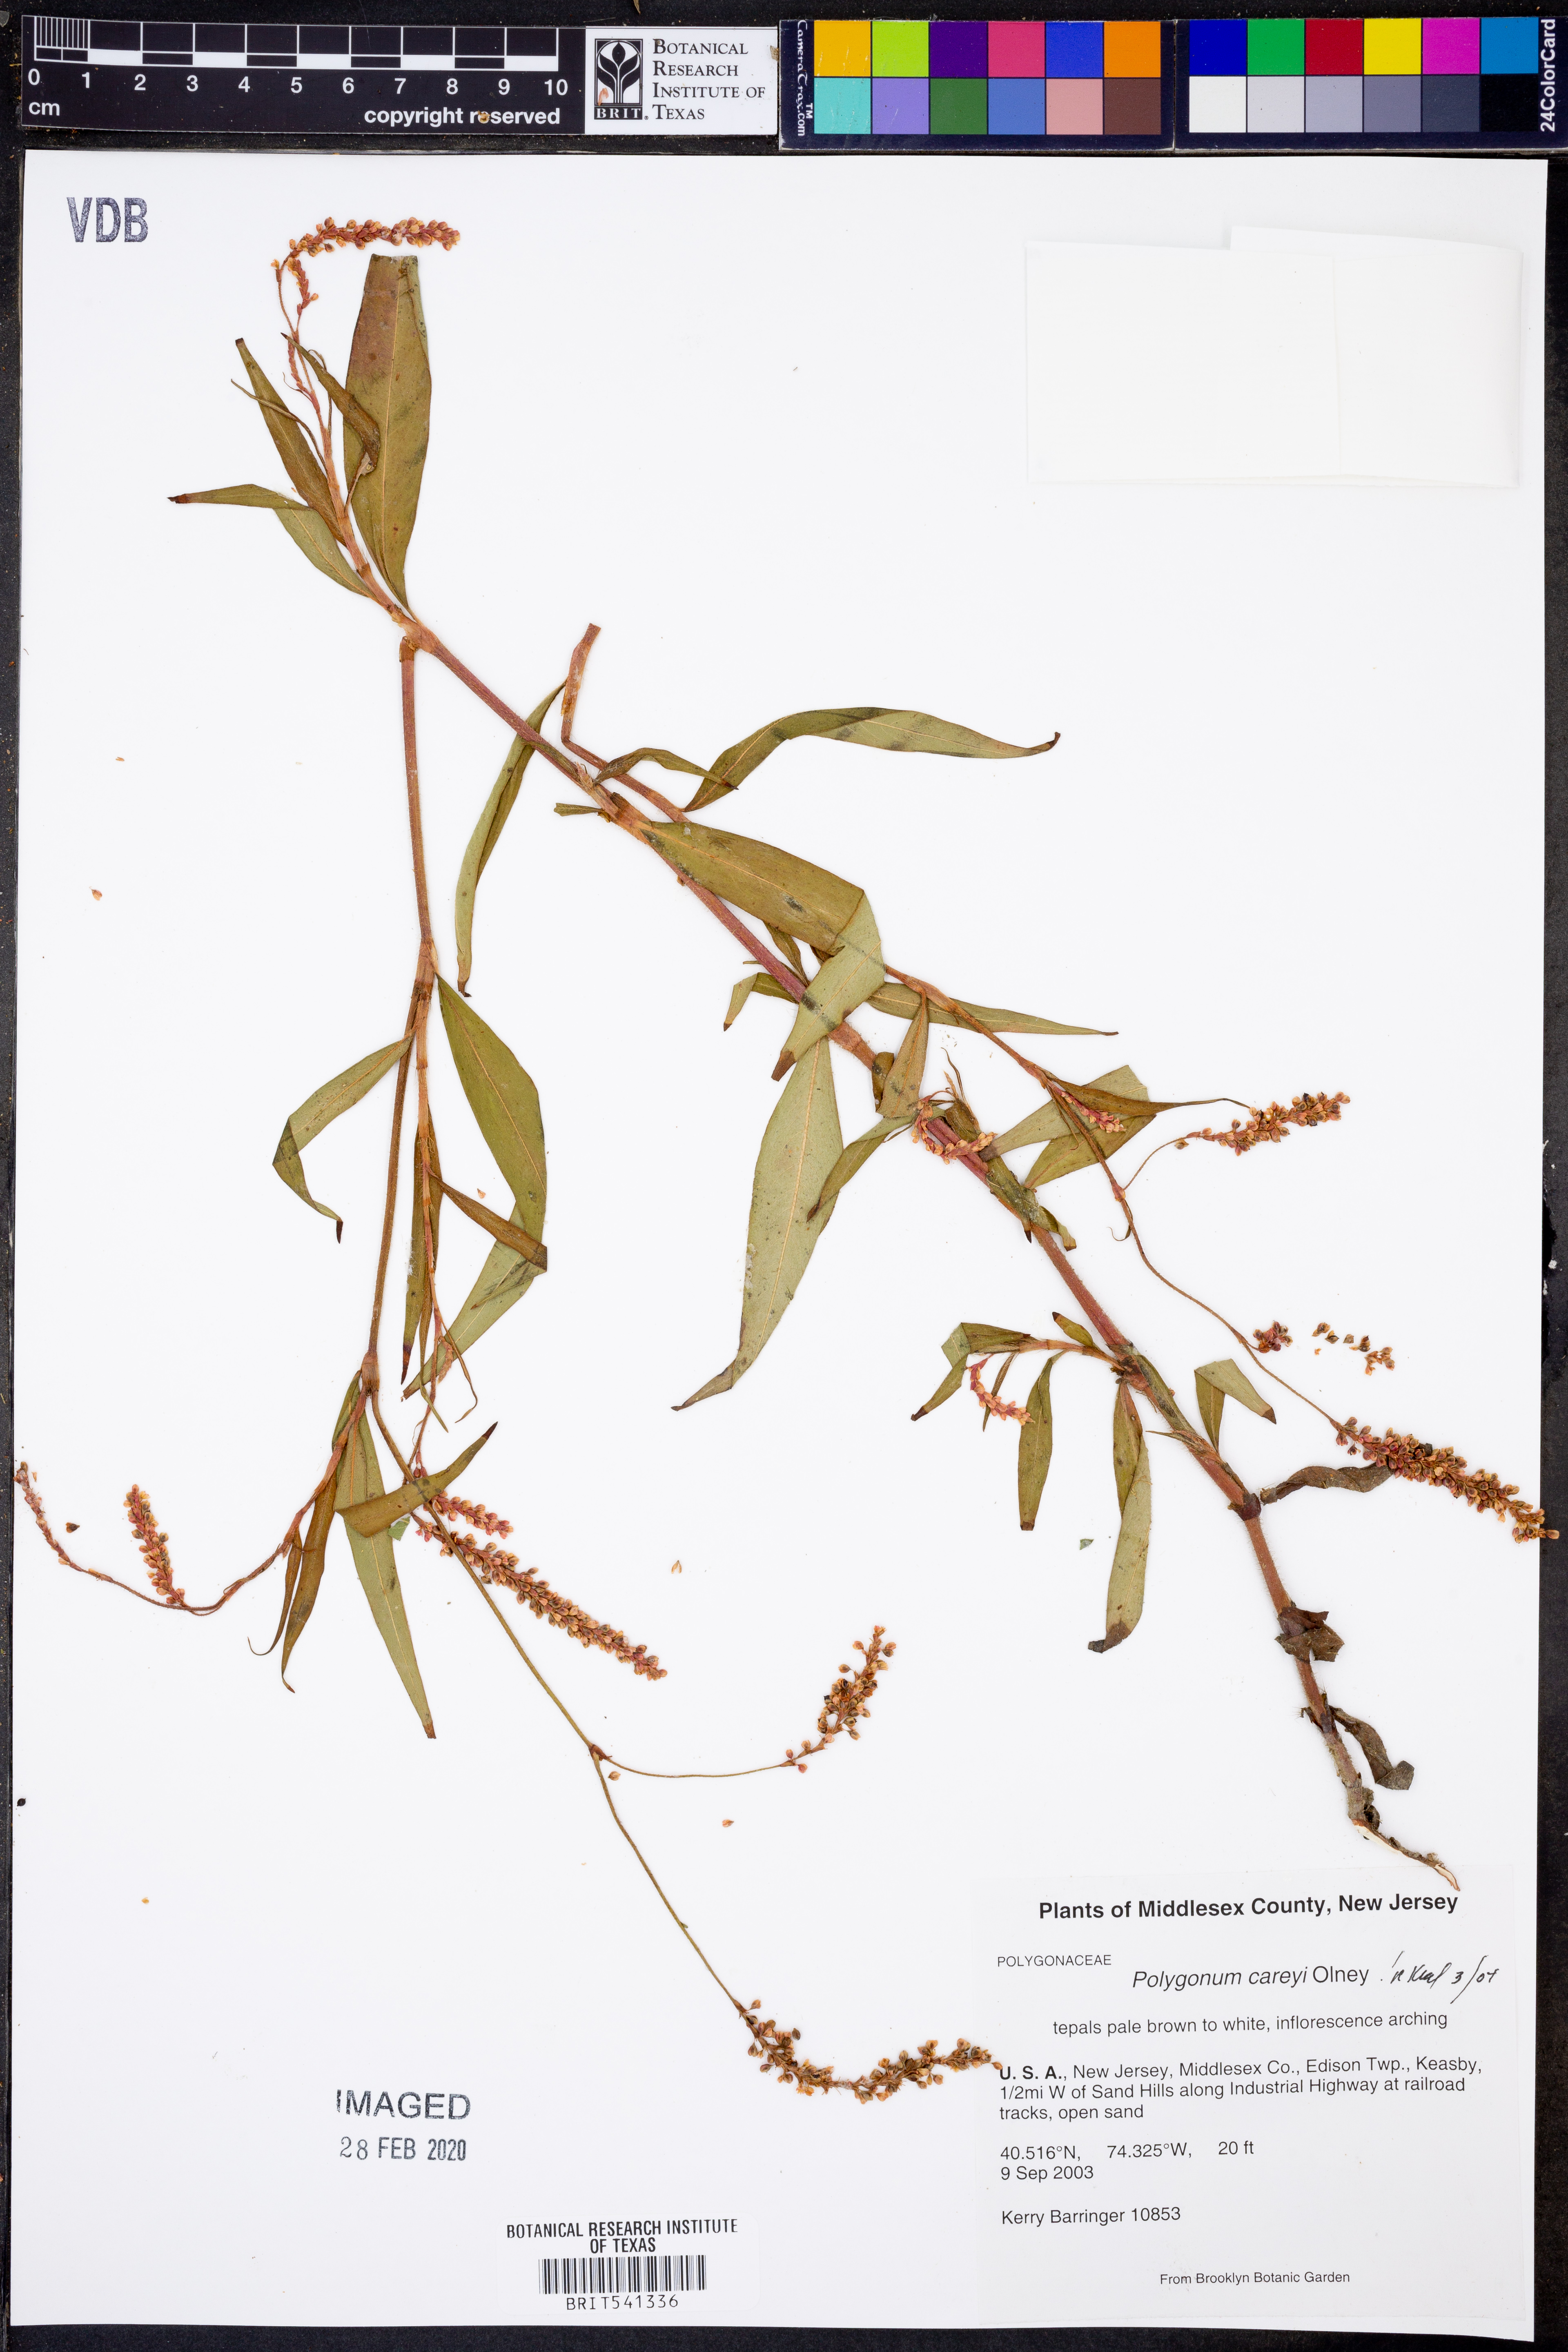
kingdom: Plantae
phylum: Tracheophyta
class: Magnoliopsida
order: Caryophyllales
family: Polygonaceae
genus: Persicaria
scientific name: Persicaria careyi
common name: Carey's smartweed
